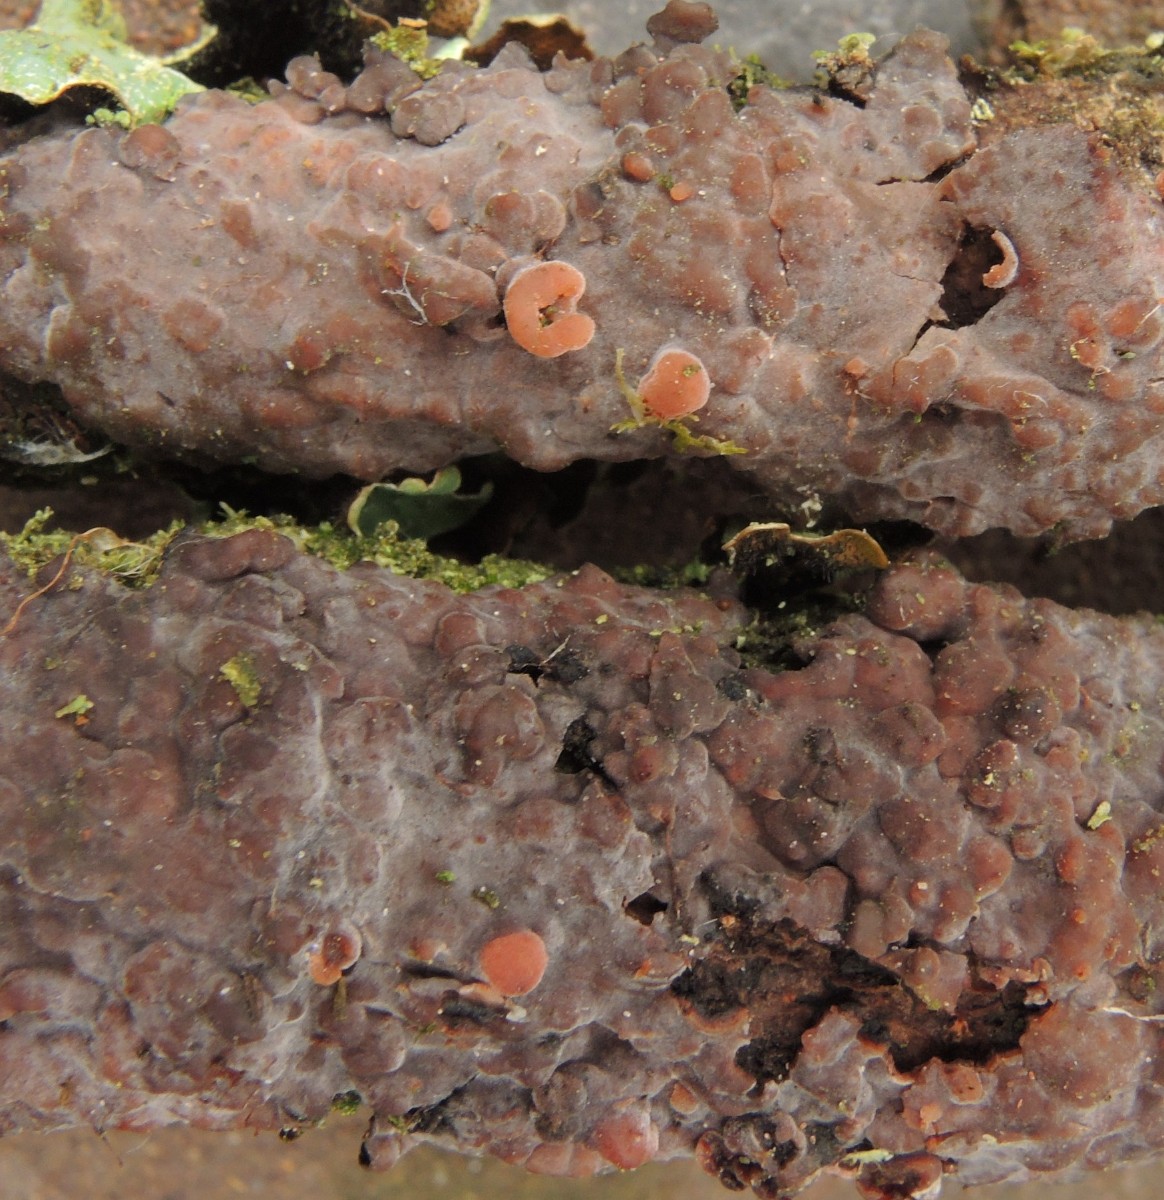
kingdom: Fungi
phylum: Basidiomycota
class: Pucciniomycetes
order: Platygloeales
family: Platygloeaceae
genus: Platygloea
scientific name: Platygloea
